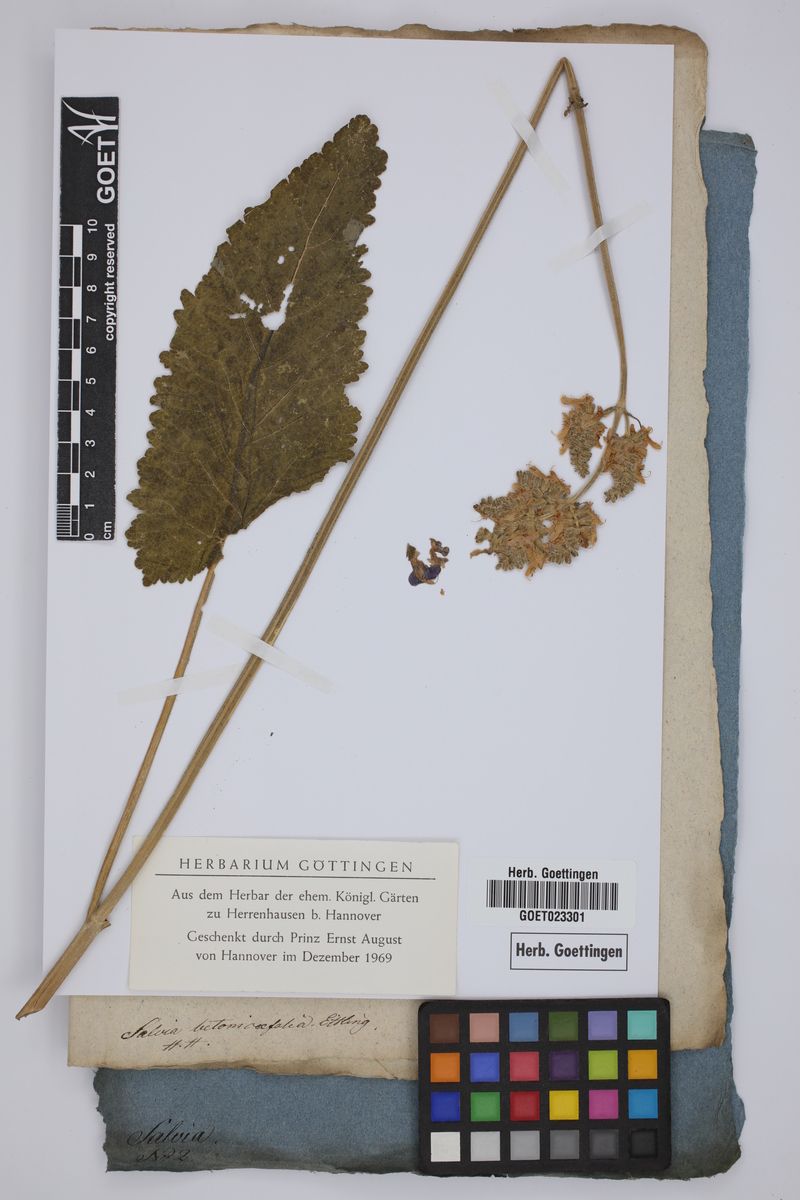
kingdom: Plantae
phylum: Tracheophyta
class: Magnoliopsida
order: Lamiales
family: Lamiaceae
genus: Salvia
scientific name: Salvia nutans
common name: Nodding sage
